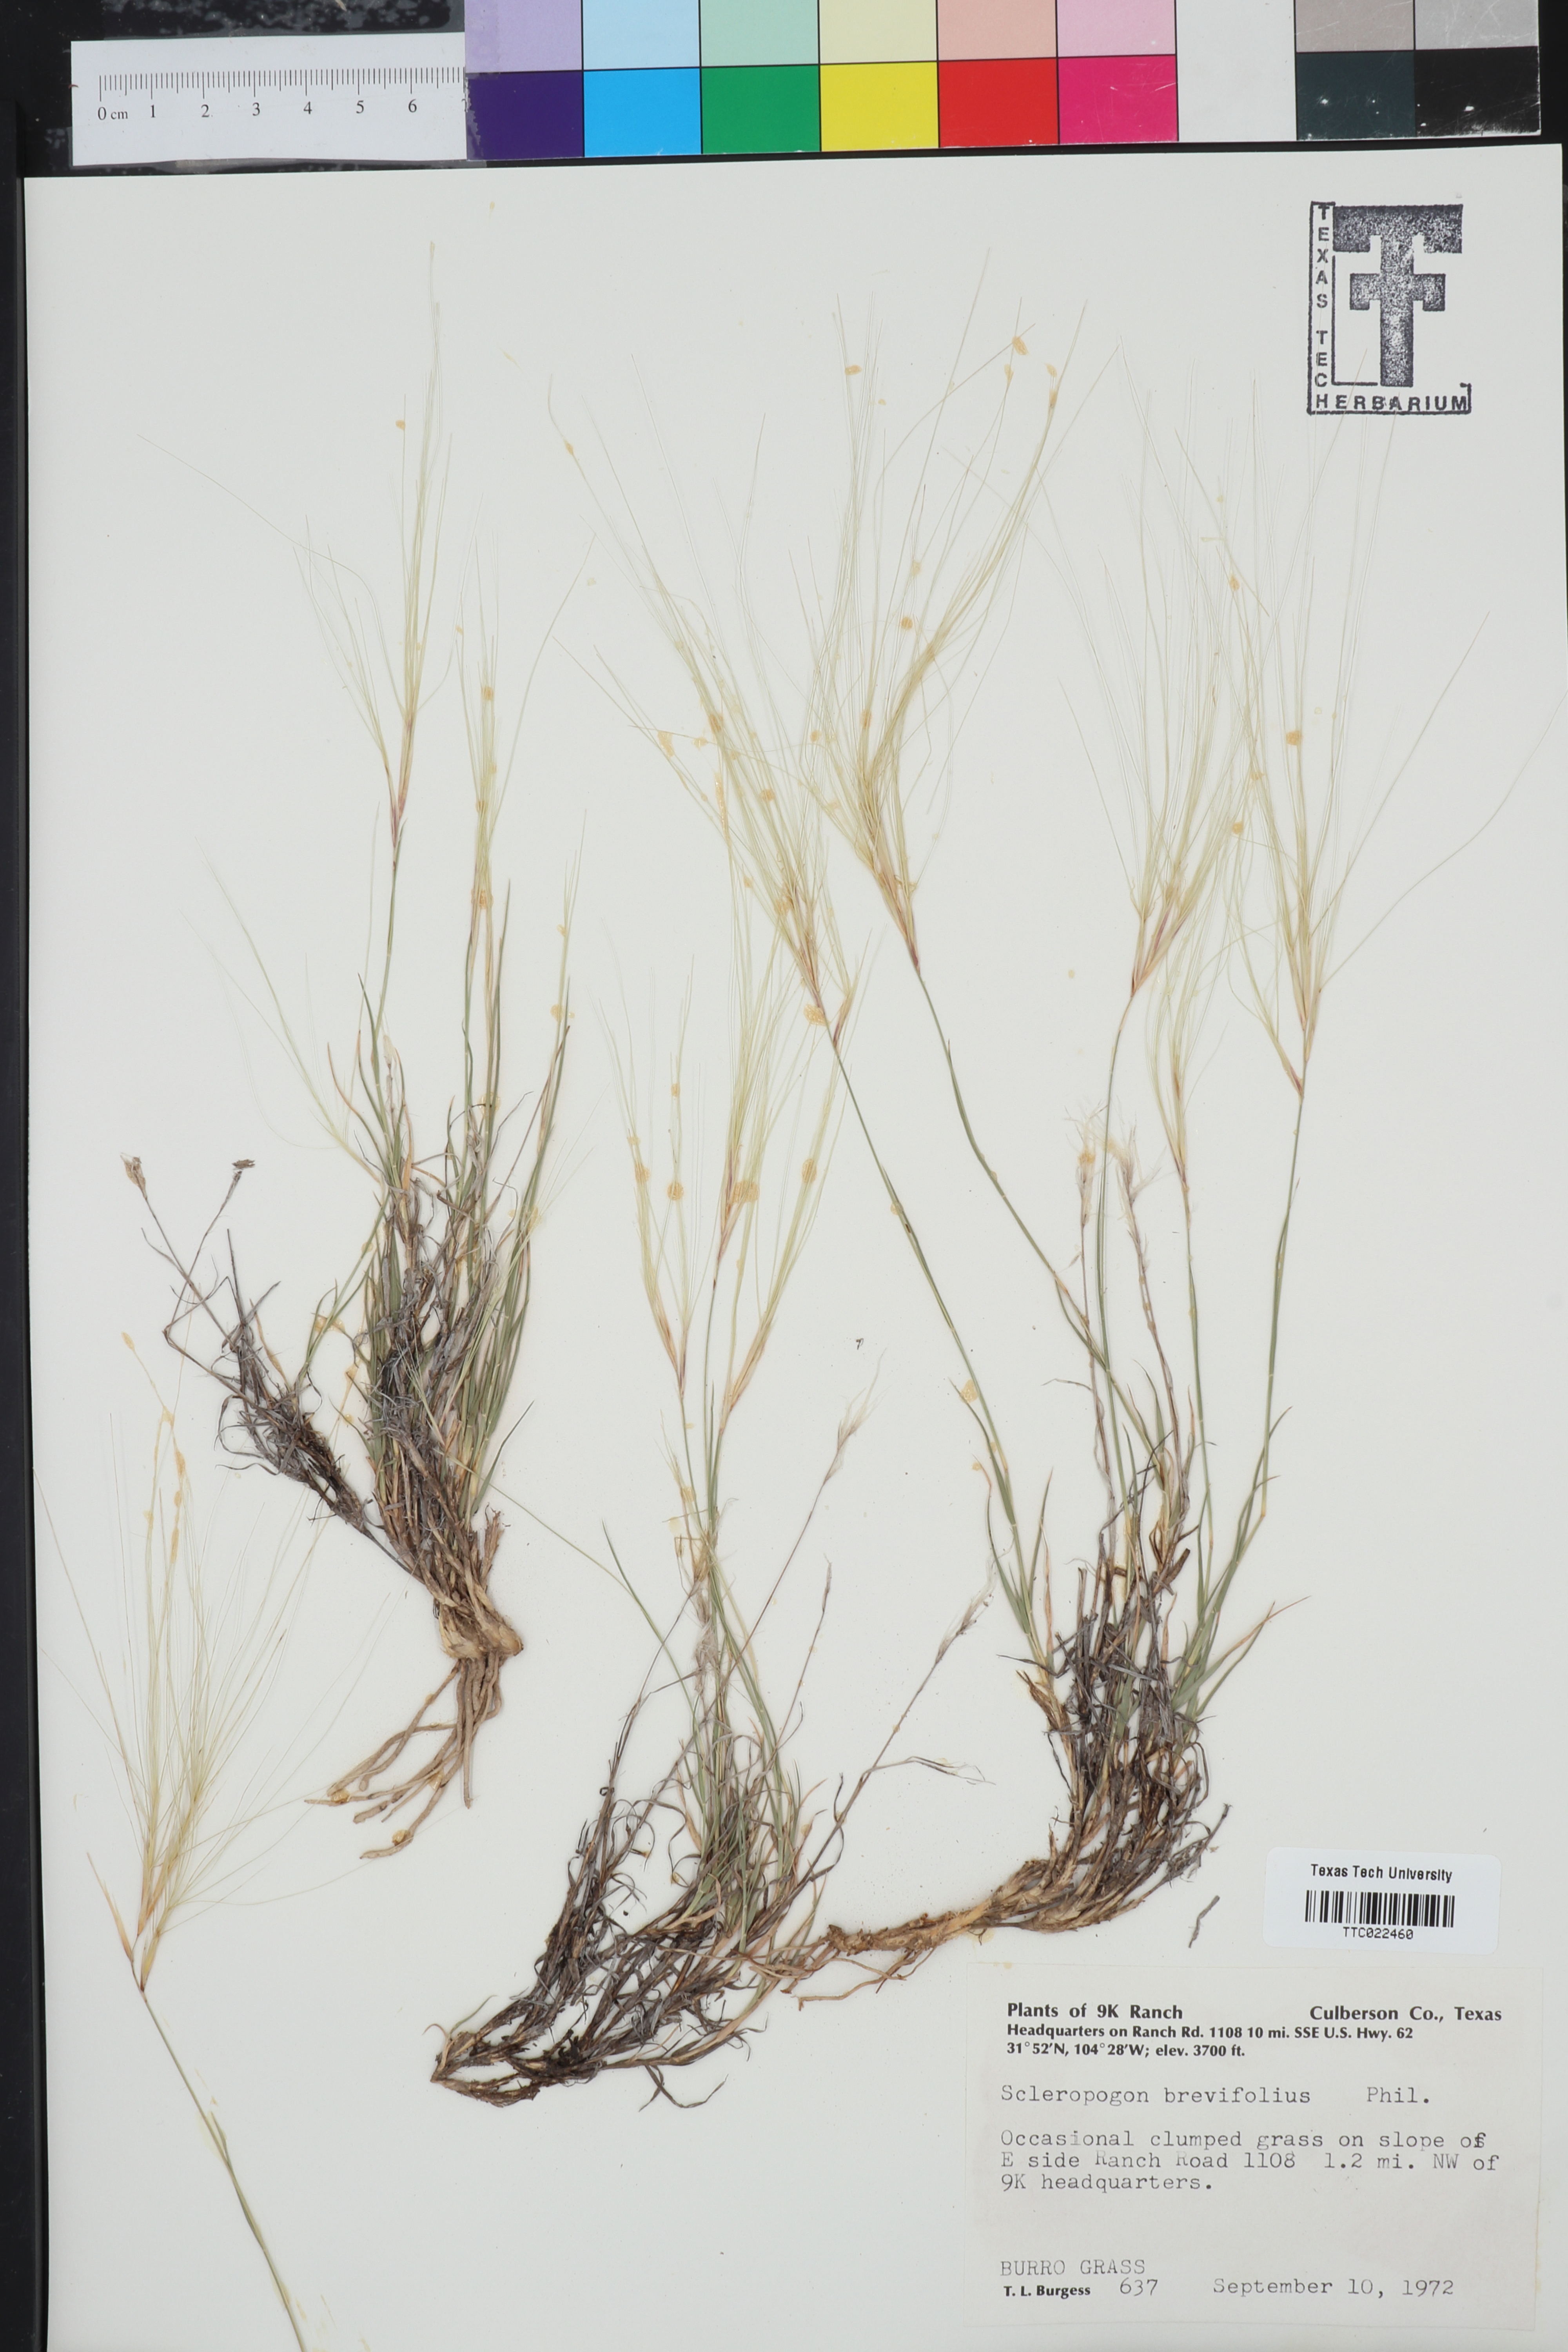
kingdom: Plantae
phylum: Tracheophyta
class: Liliopsida
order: Poales
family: Poaceae
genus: Scleropogon
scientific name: Scleropogon brevifolius
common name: Burro grass
